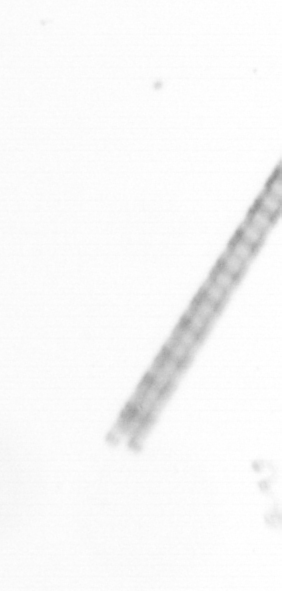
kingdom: Chromista
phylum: Ochrophyta
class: Bacillariophyceae
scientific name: Bacillariophyceae
